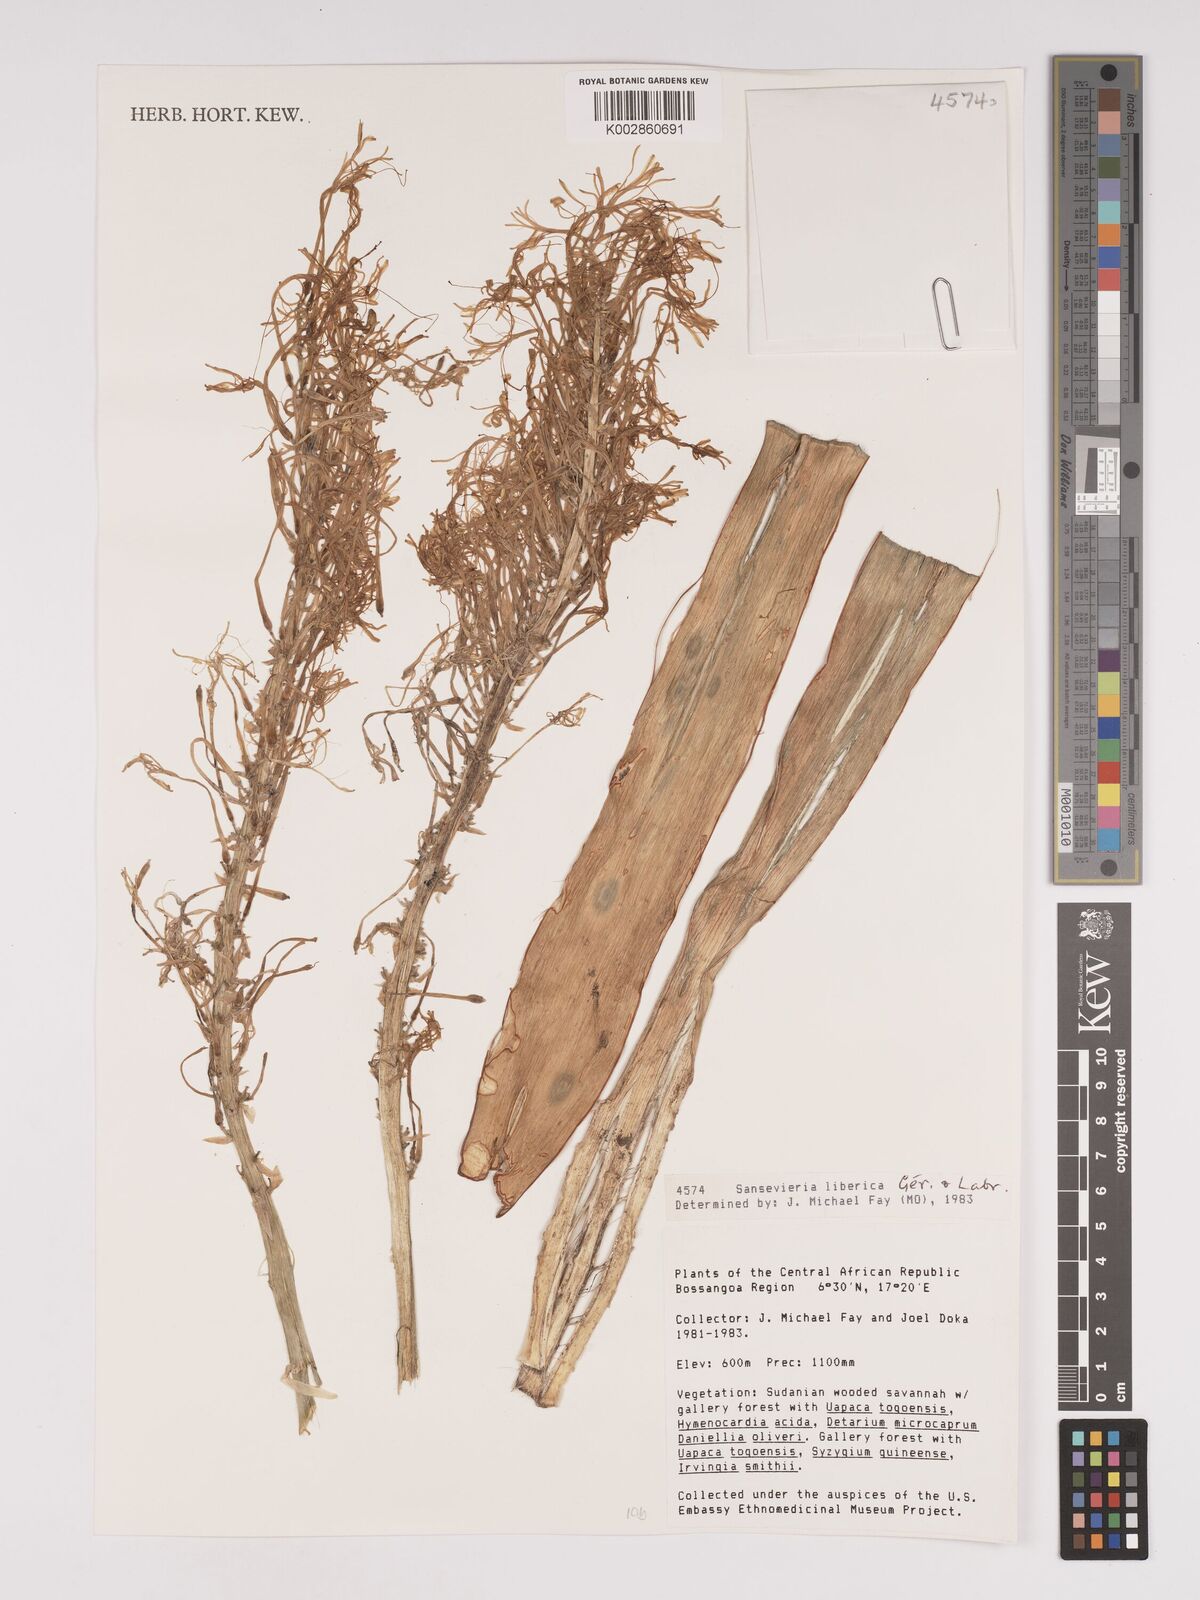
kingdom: Plantae
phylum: Tracheophyta
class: Liliopsida
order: Asparagales
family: Asparagaceae
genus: Dracaena
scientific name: Dracaena liberica
